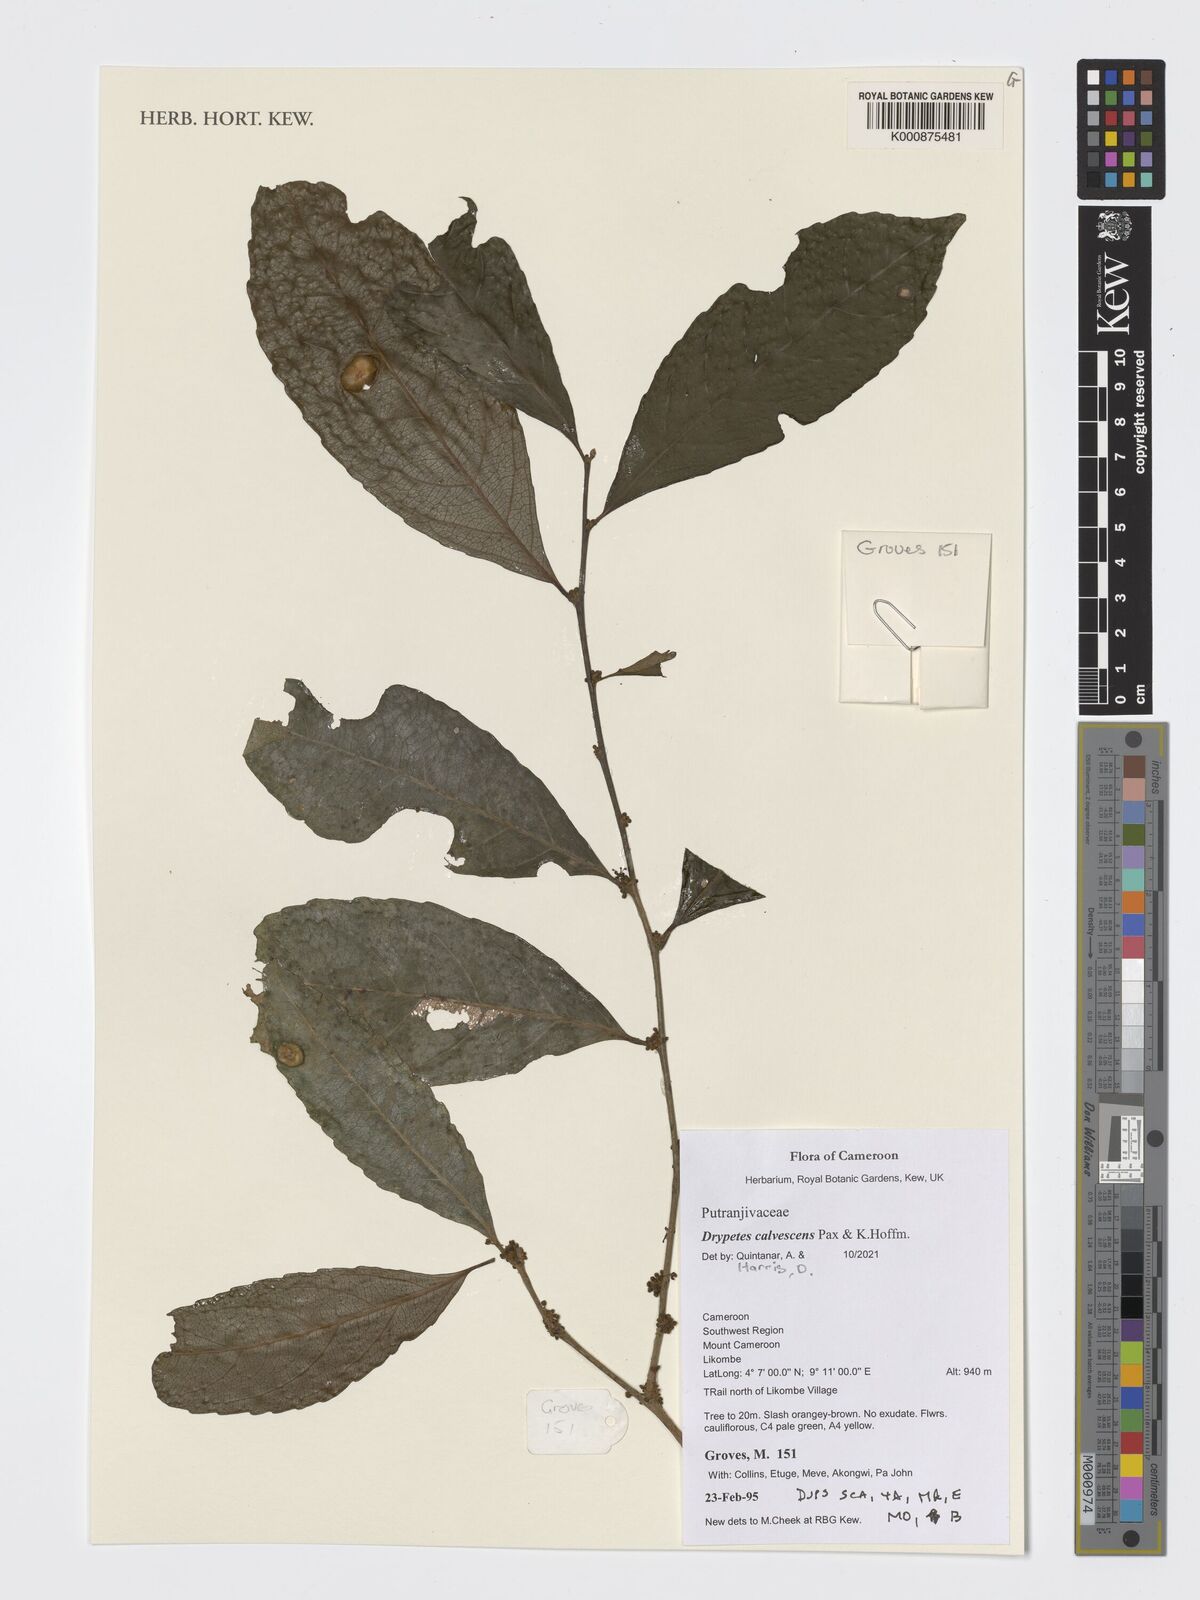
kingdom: Plantae
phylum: Tracheophyta
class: Magnoliopsida
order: Malpighiales
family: Putranjivaceae
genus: Drypetes
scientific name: Drypetes calvescens
